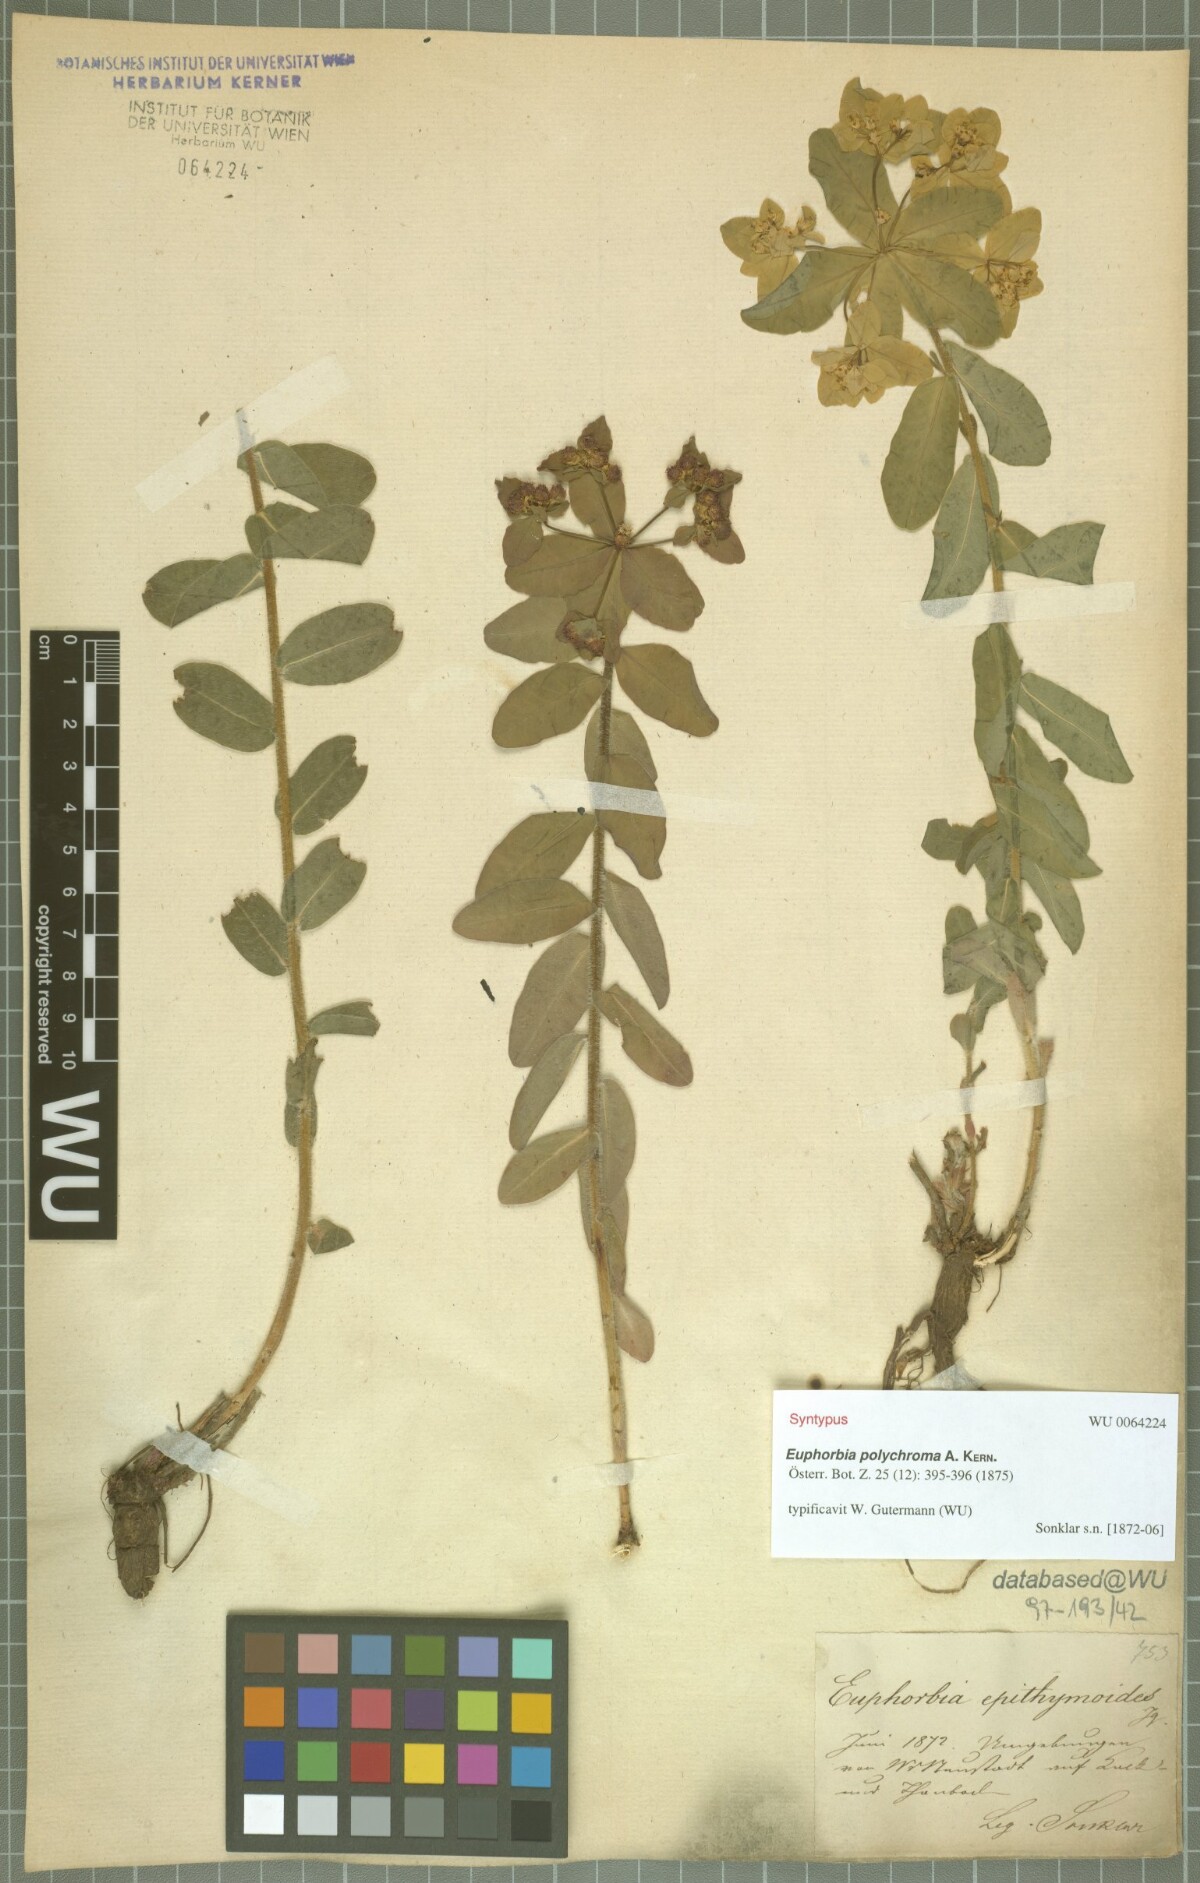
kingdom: Plantae
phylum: Tracheophyta
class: Magnoliopsida
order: Malpighiales
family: Euphorbiaceae
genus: Euphorbia
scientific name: Euphorbia epithymoides
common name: Cushion spurge
